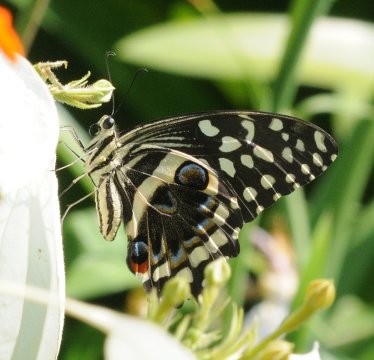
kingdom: Animalia
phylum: Arthropoda
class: Insecta
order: Lepidoptera
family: Papilionidae
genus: Papilio
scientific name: Papilio demodocus
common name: Citrus Swallowtail
